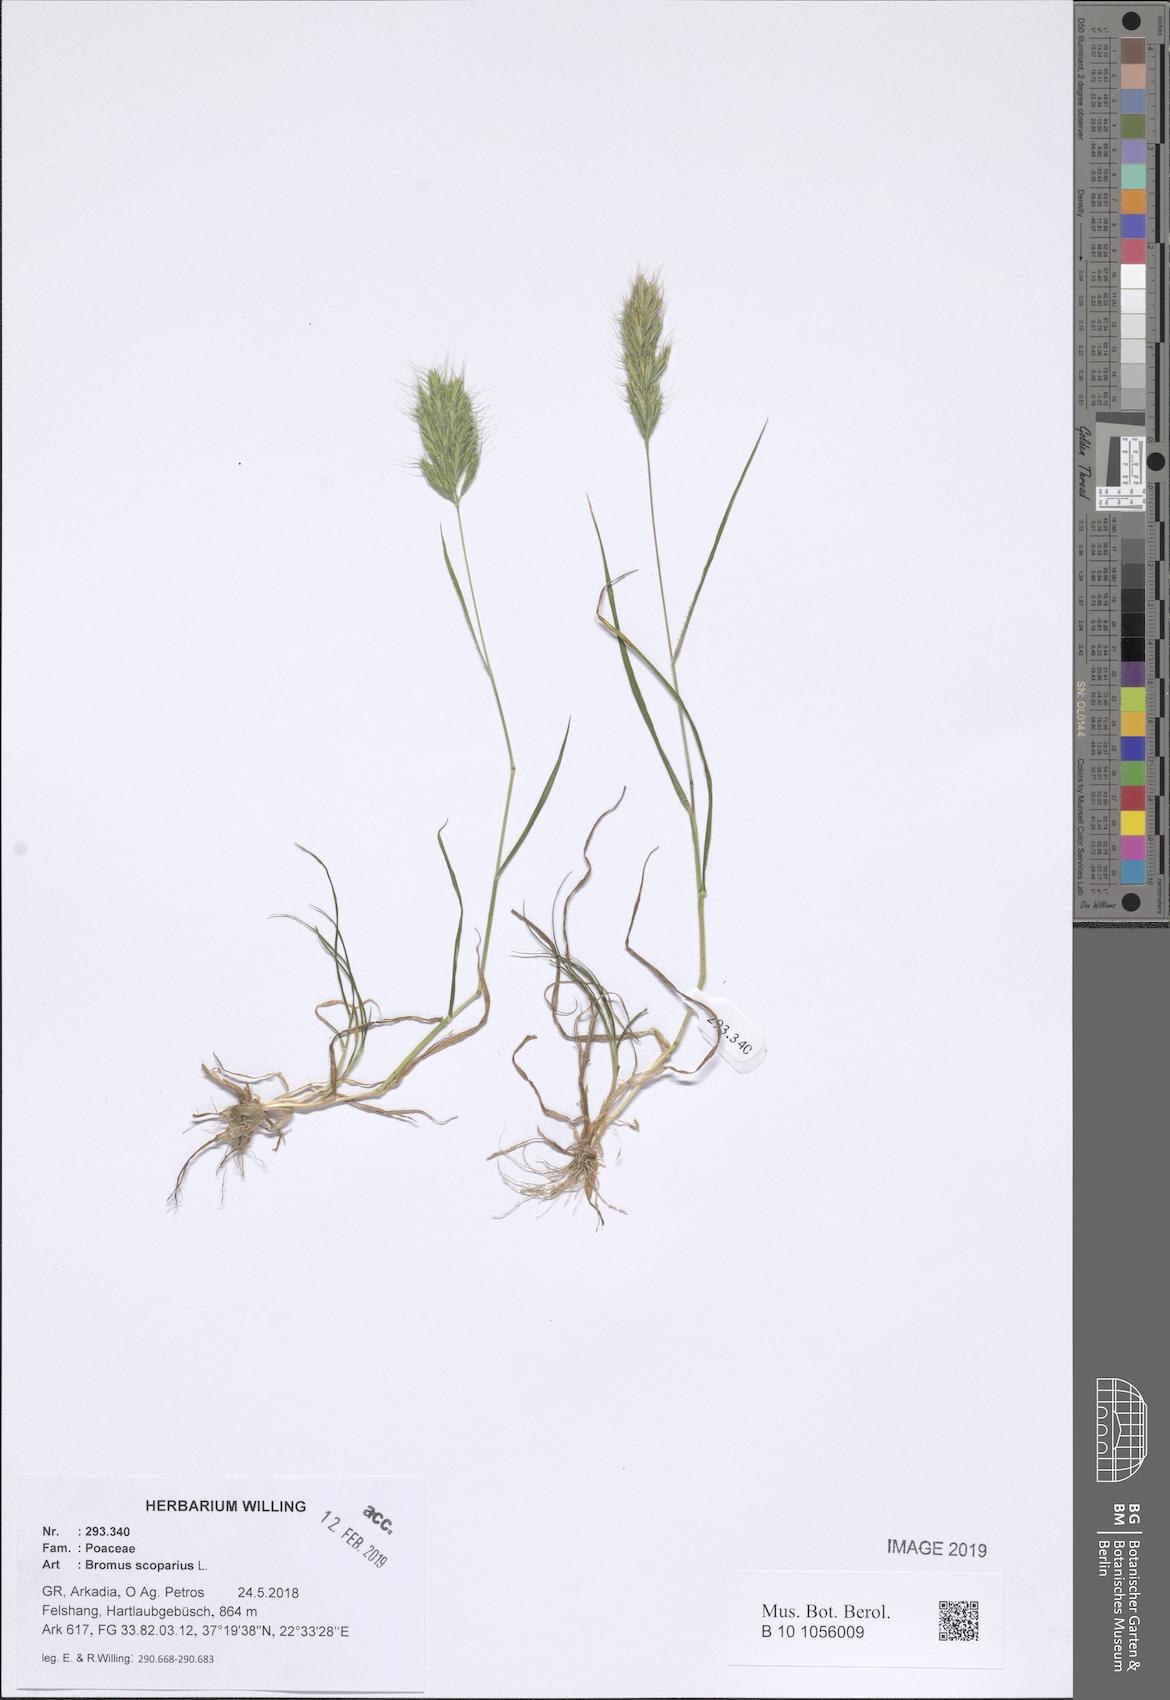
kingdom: Plantae
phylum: Tracheophyta
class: Liliopsida
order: Poales
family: Poaceae
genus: Bromus
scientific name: Bromus scoparius
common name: Broom brome
